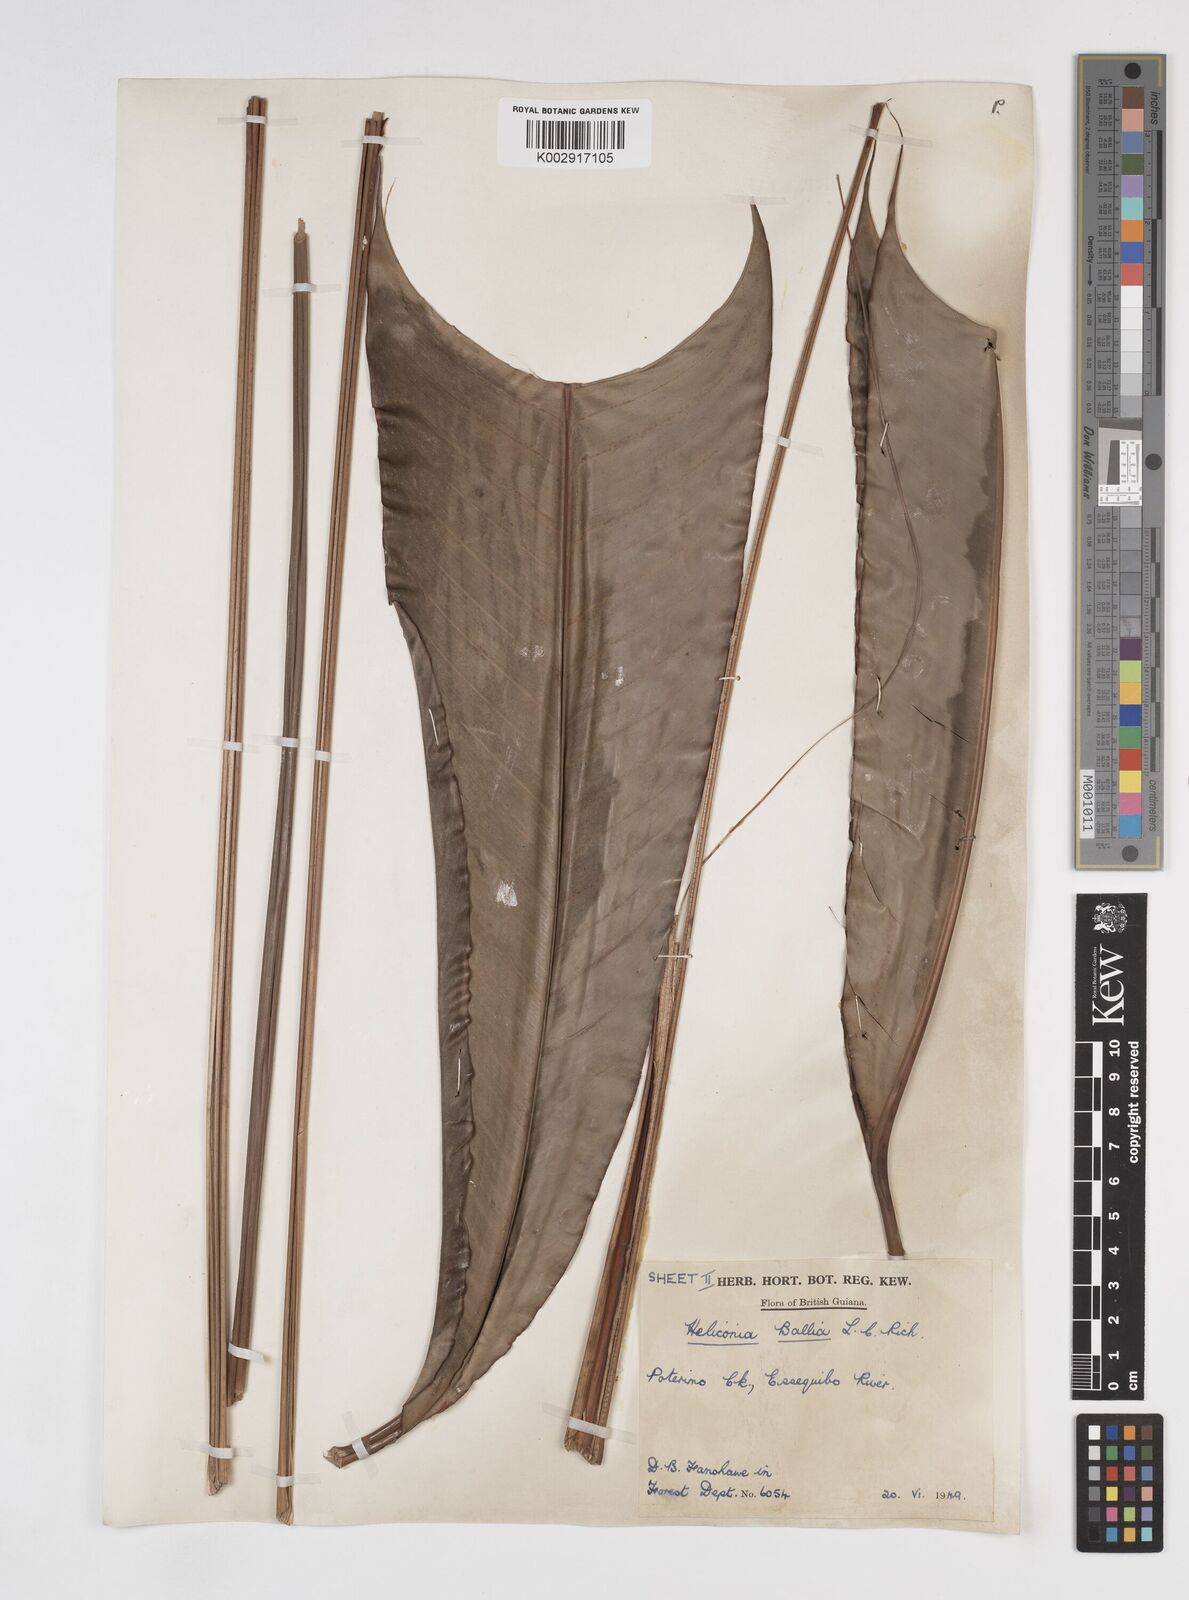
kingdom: Plantae
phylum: Tracheophyta
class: Liliopsida
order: Zingiberales
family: Heliconiaceae
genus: Heliconia
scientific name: Heliconia acuminata
